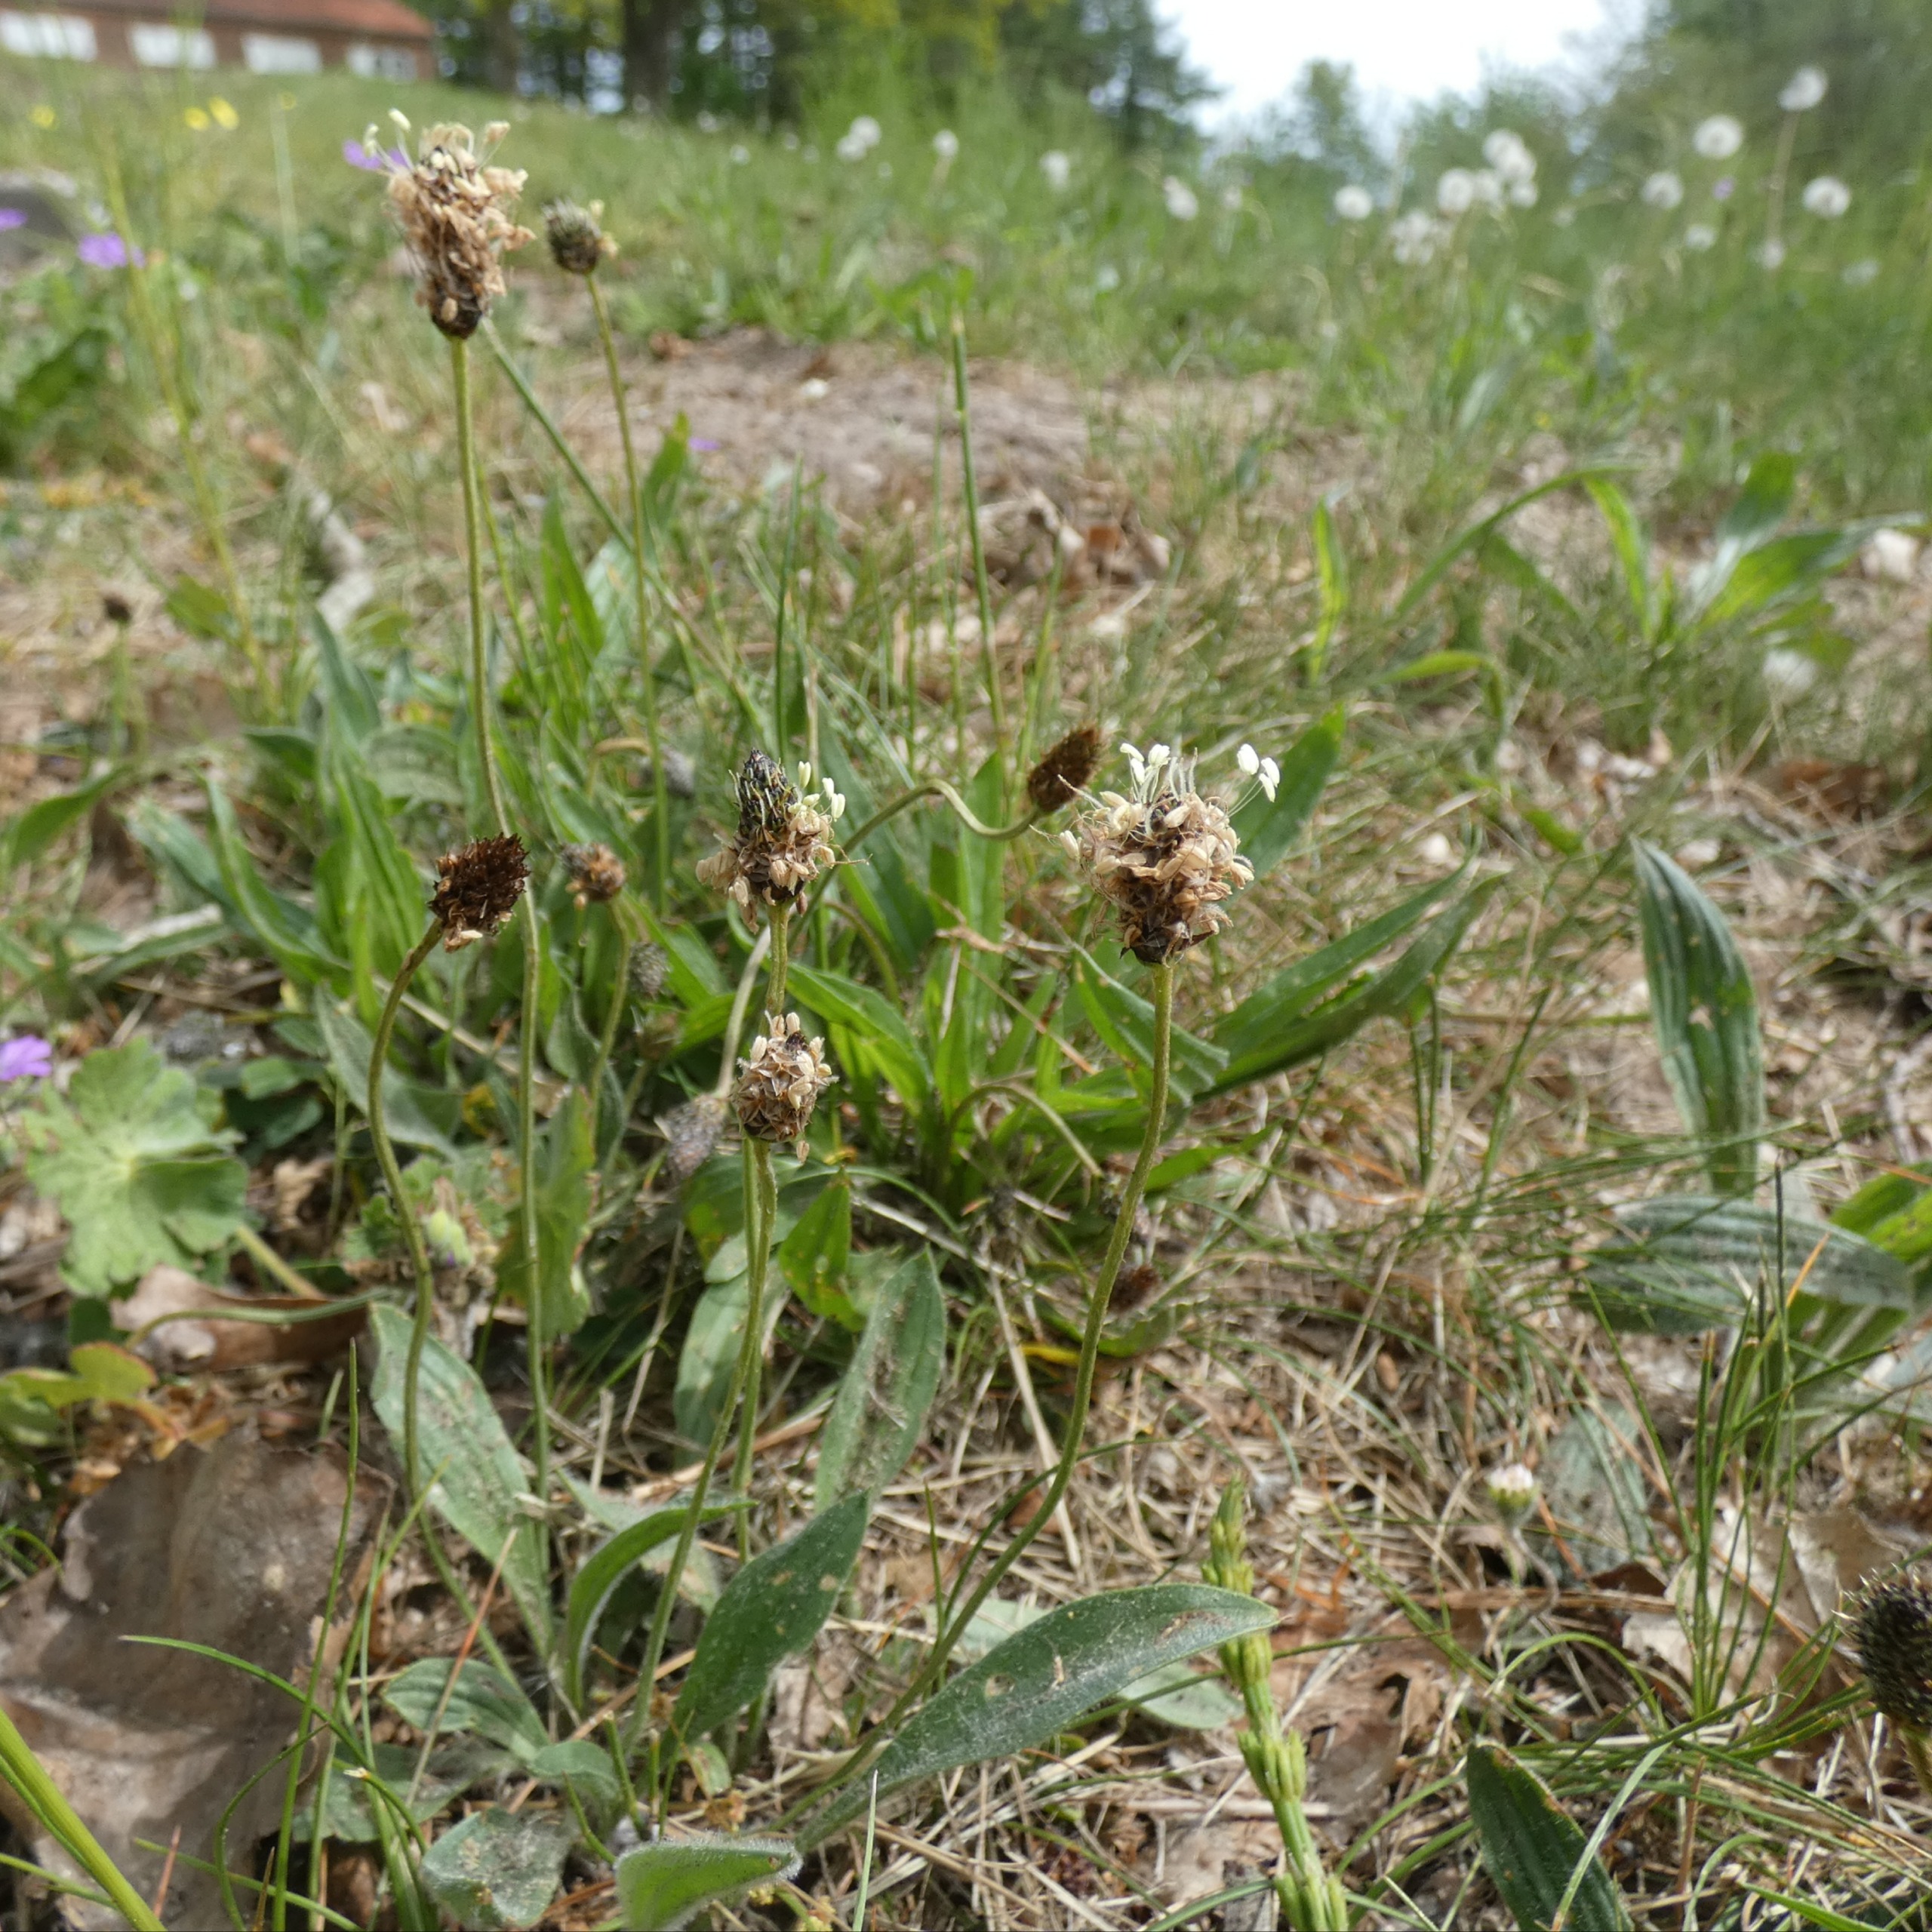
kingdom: Plantae
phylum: Tracheophyta
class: Magnoliopsida
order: Lamiales
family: Plantaginaceae
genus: Plantago
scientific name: Plantago lanceolata
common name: Lancet-vejbred
